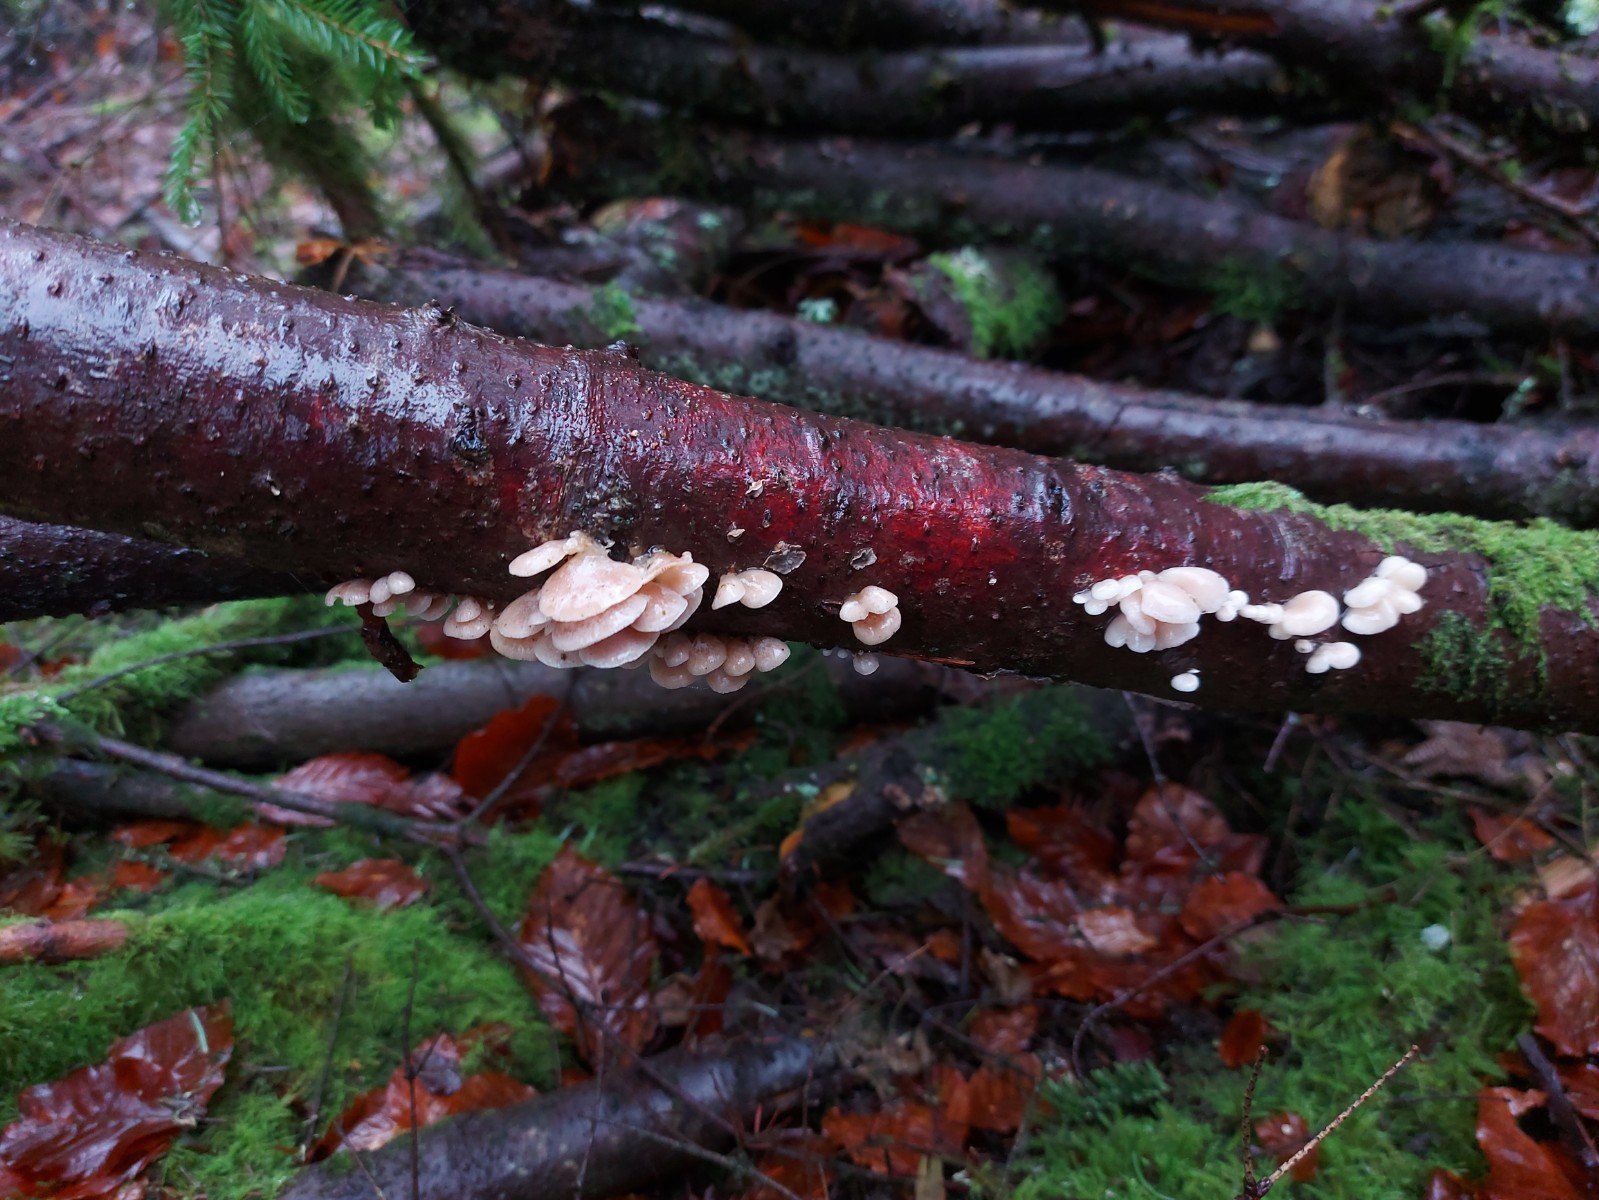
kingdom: Fungi
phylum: Basidiomycota
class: Agaricomycetes
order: Agaricales
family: Mycenaceae
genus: Panellus
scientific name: Panellus mitis
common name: mild epaulethat
